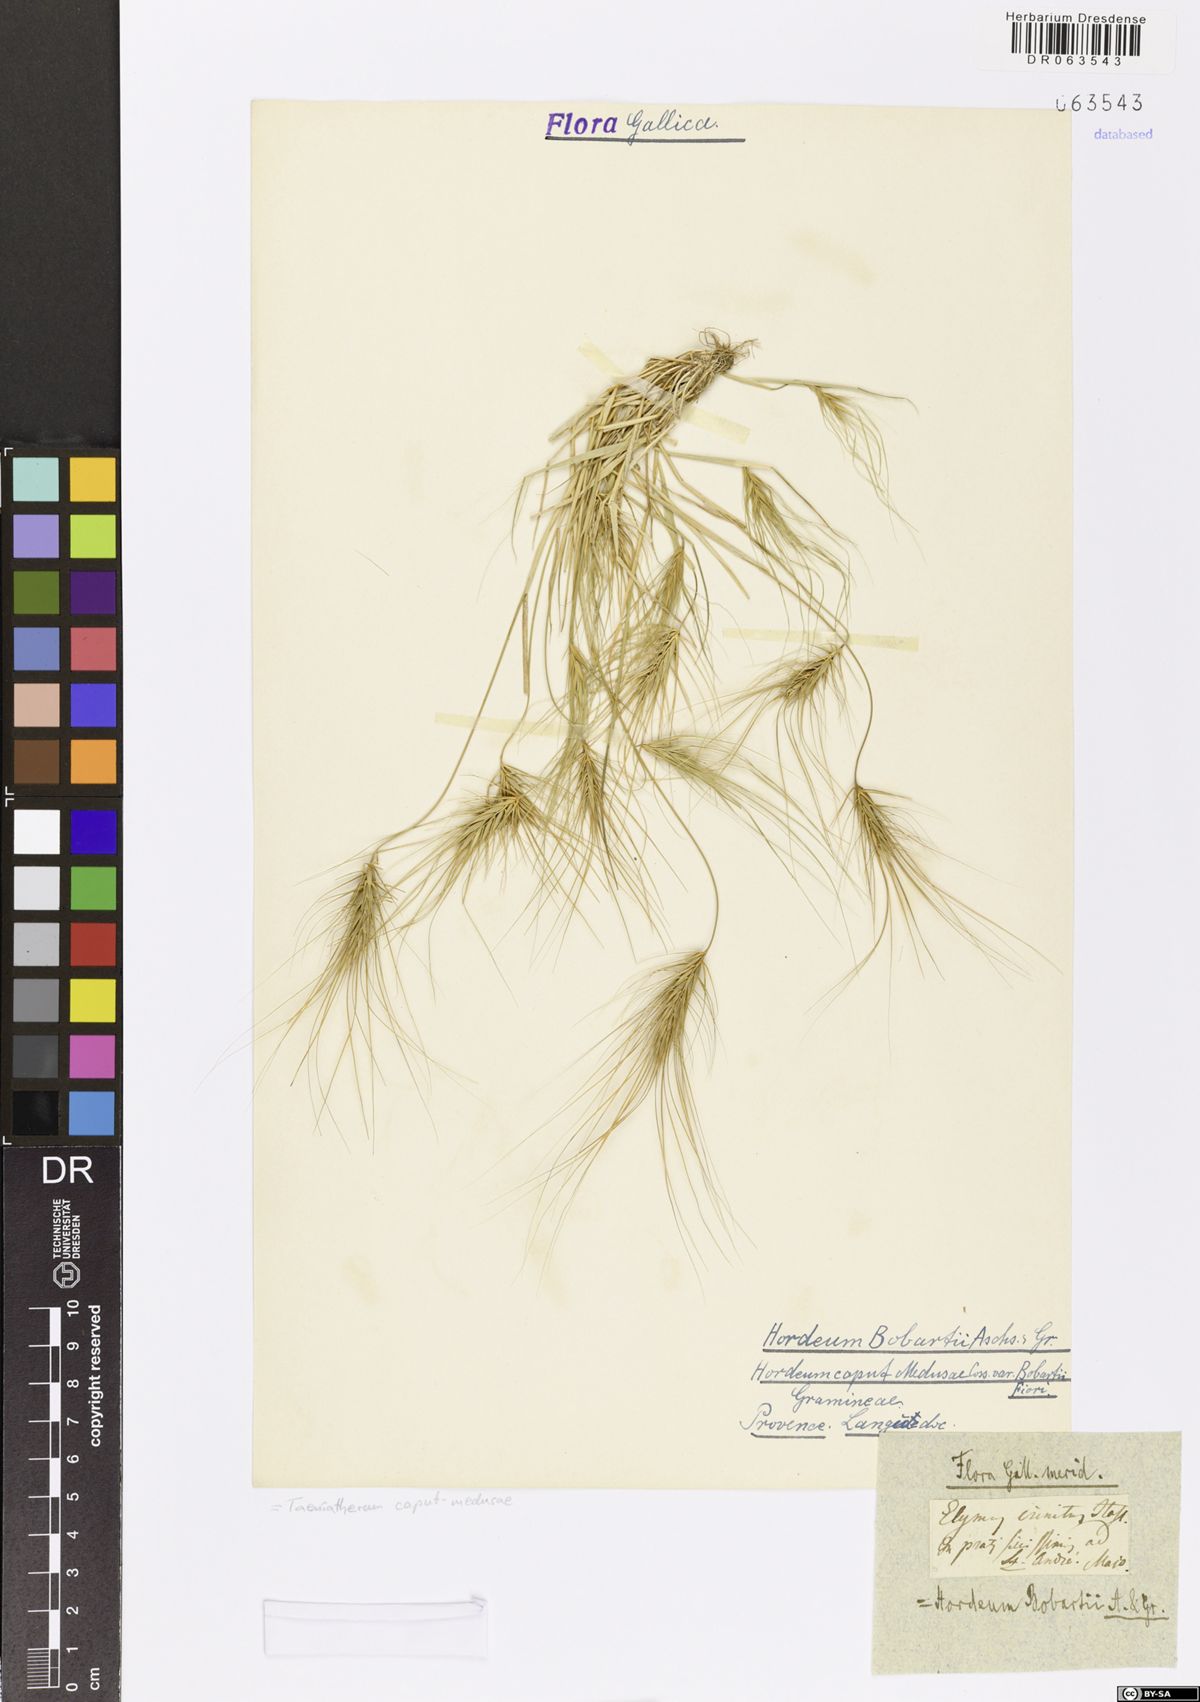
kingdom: Plantae
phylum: Tracheophyta
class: Liliopsida
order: Poales
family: Poaceae
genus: Taeniatherum
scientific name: Taeniatherum caput-medusae
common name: Medusahead
